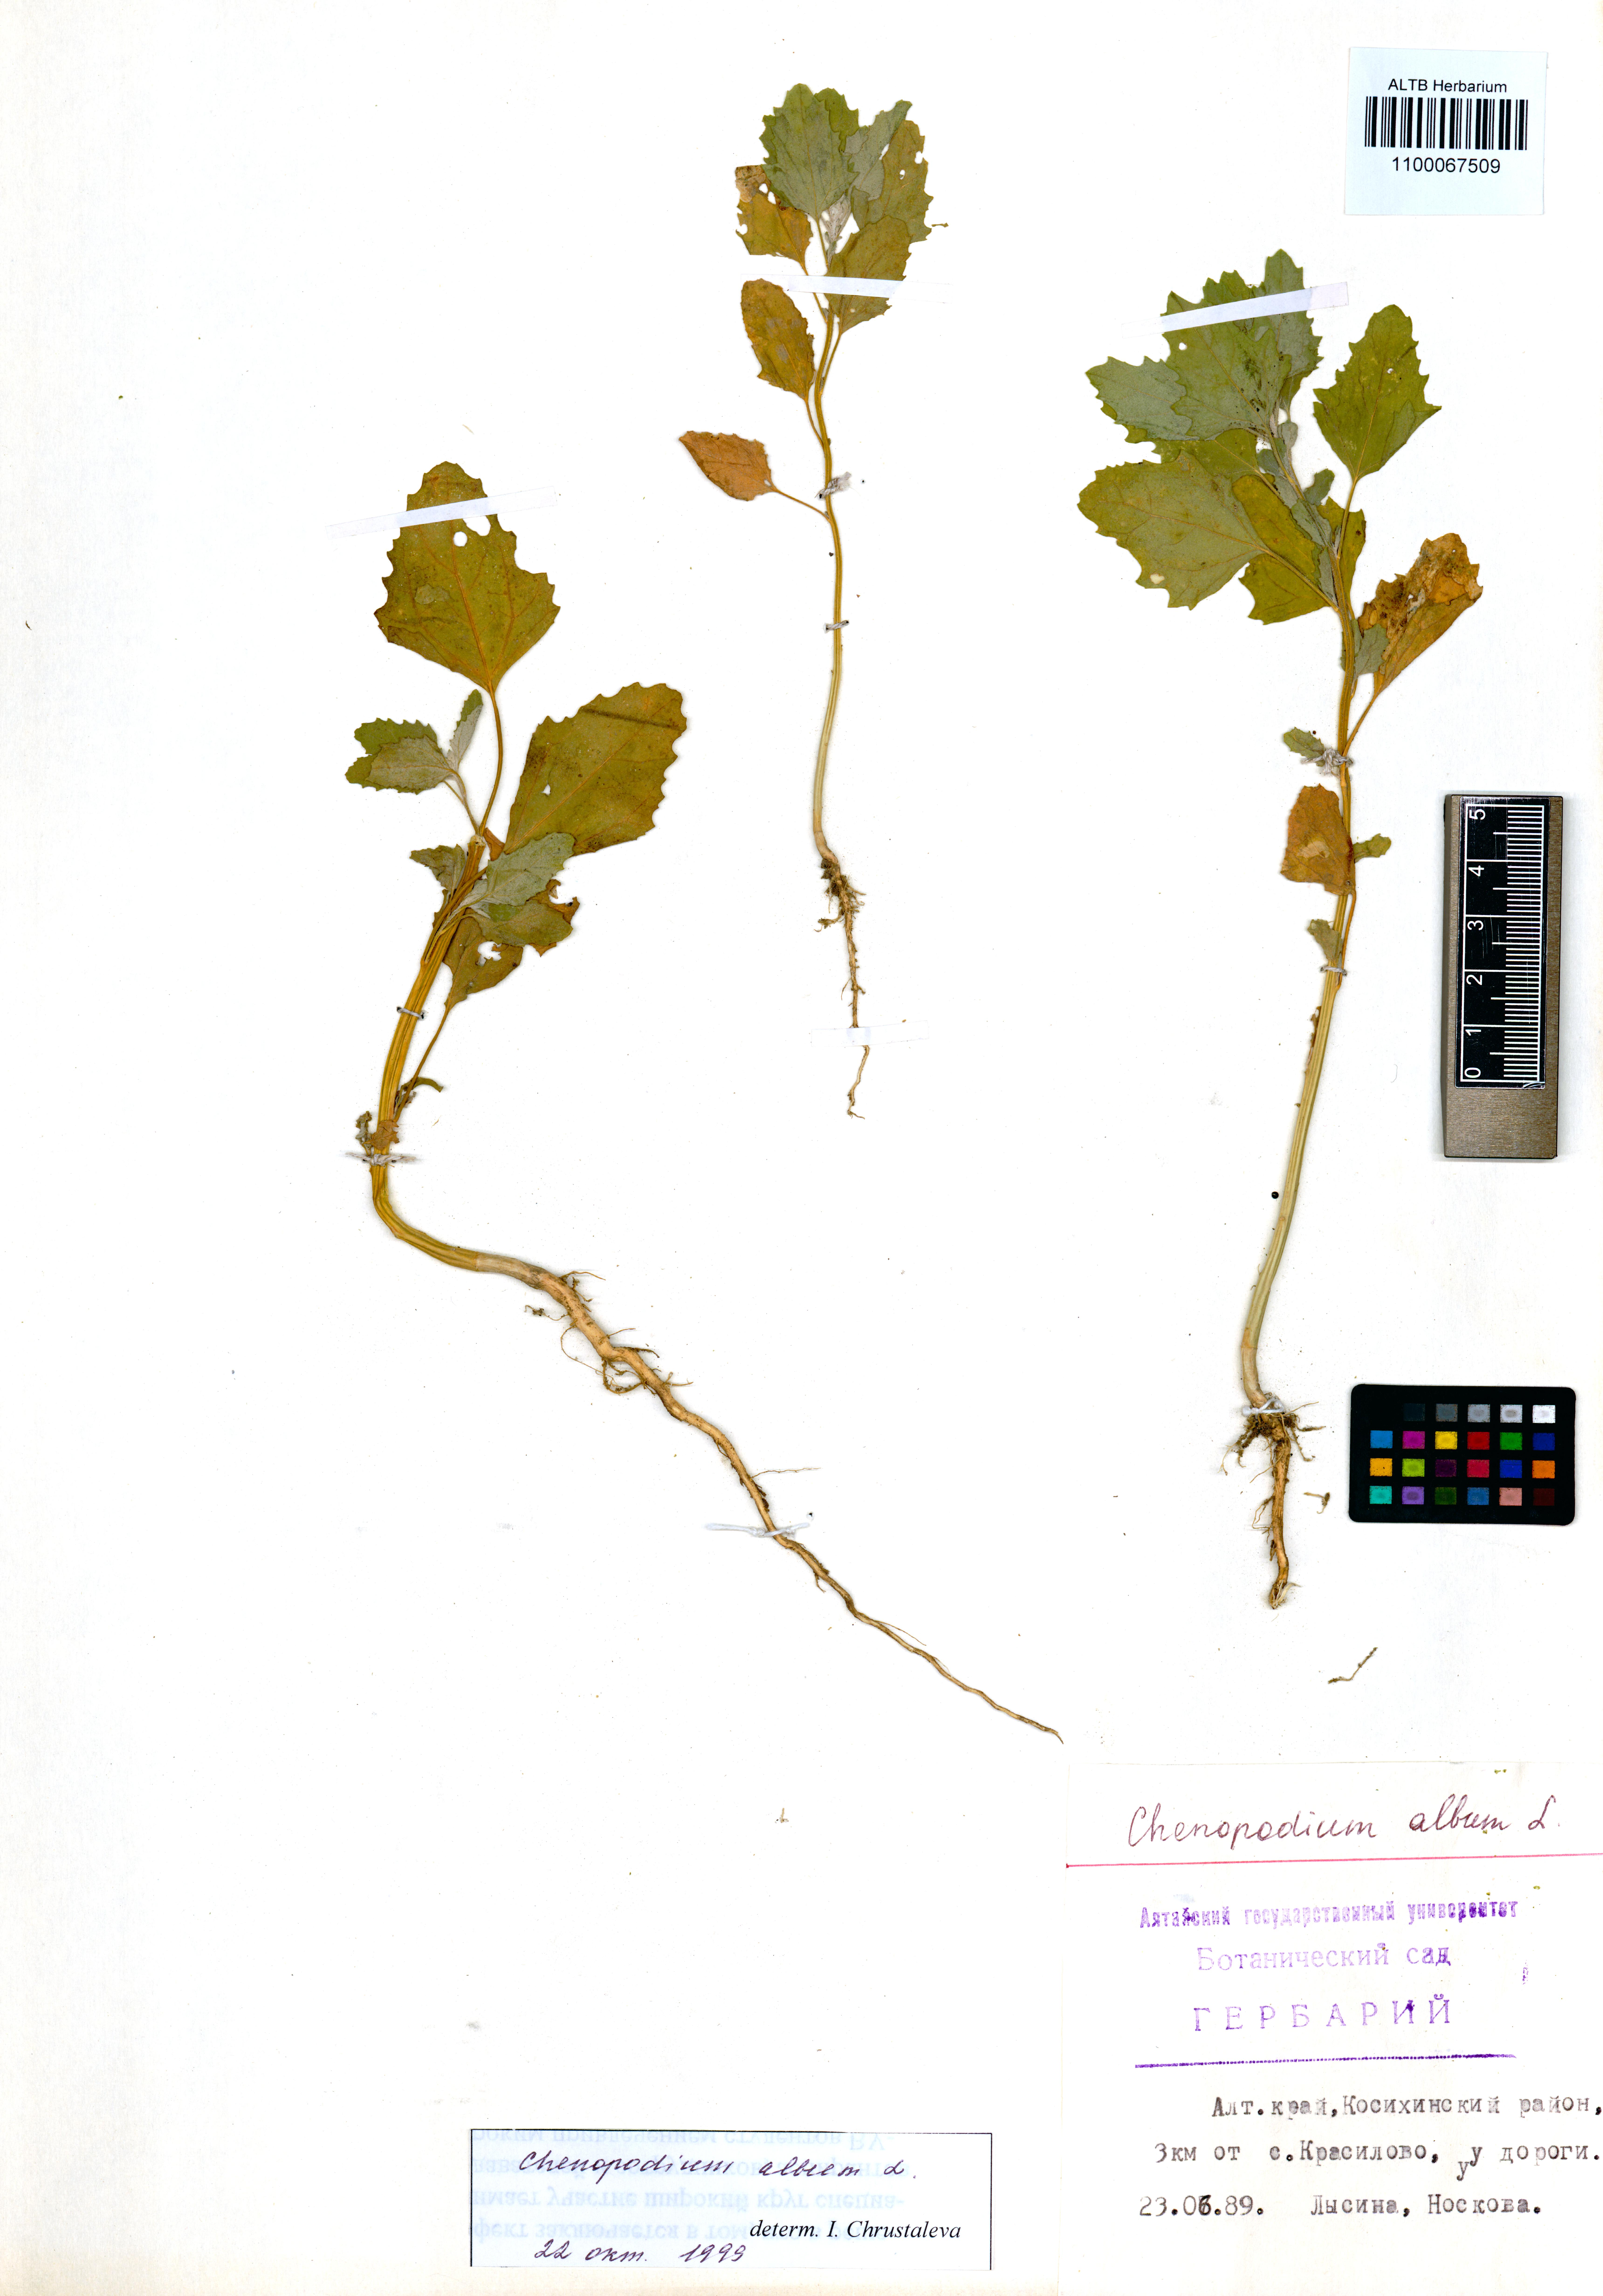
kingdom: Plantae
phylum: Tracheophyta
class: Magnoliopsida
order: Caryophyllales
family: Amaranthaceae
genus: Chenopodium
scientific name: Chenopodium album
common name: Fat-hen
